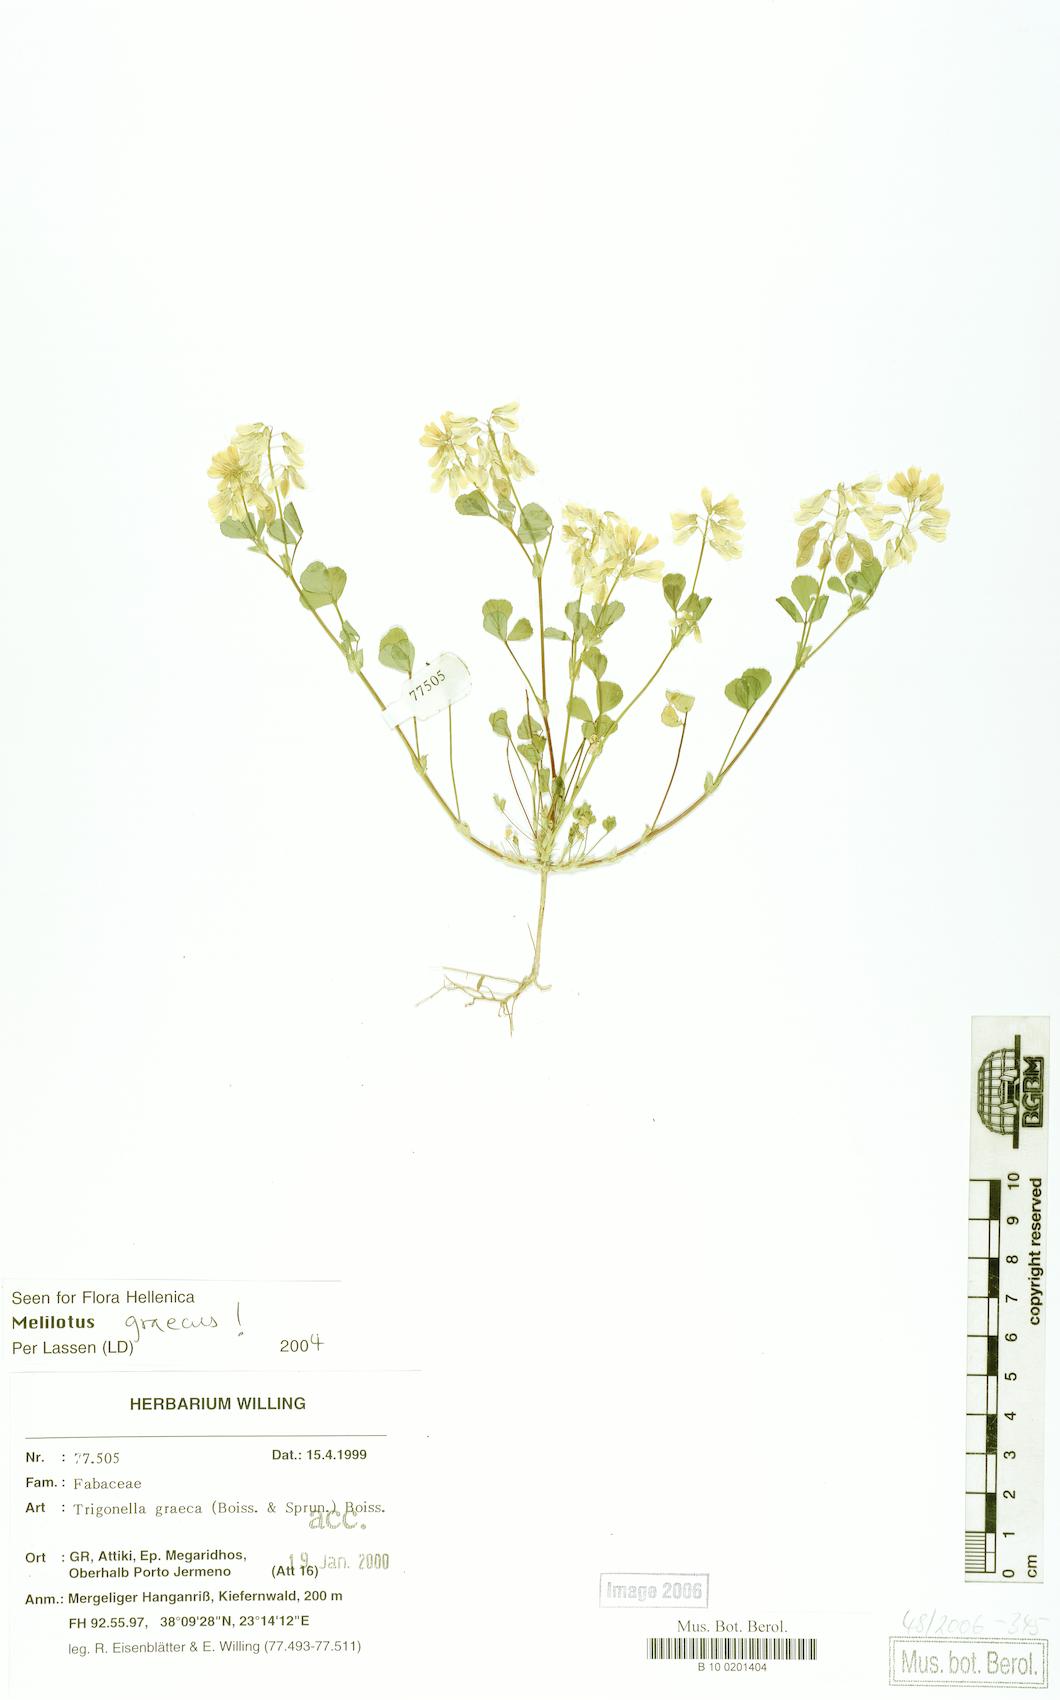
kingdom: Plantae
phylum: Tracheophyta
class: Magnoliopsida
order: Fabales
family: Fabaceae
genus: Trigonella
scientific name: Trigonella graeca
